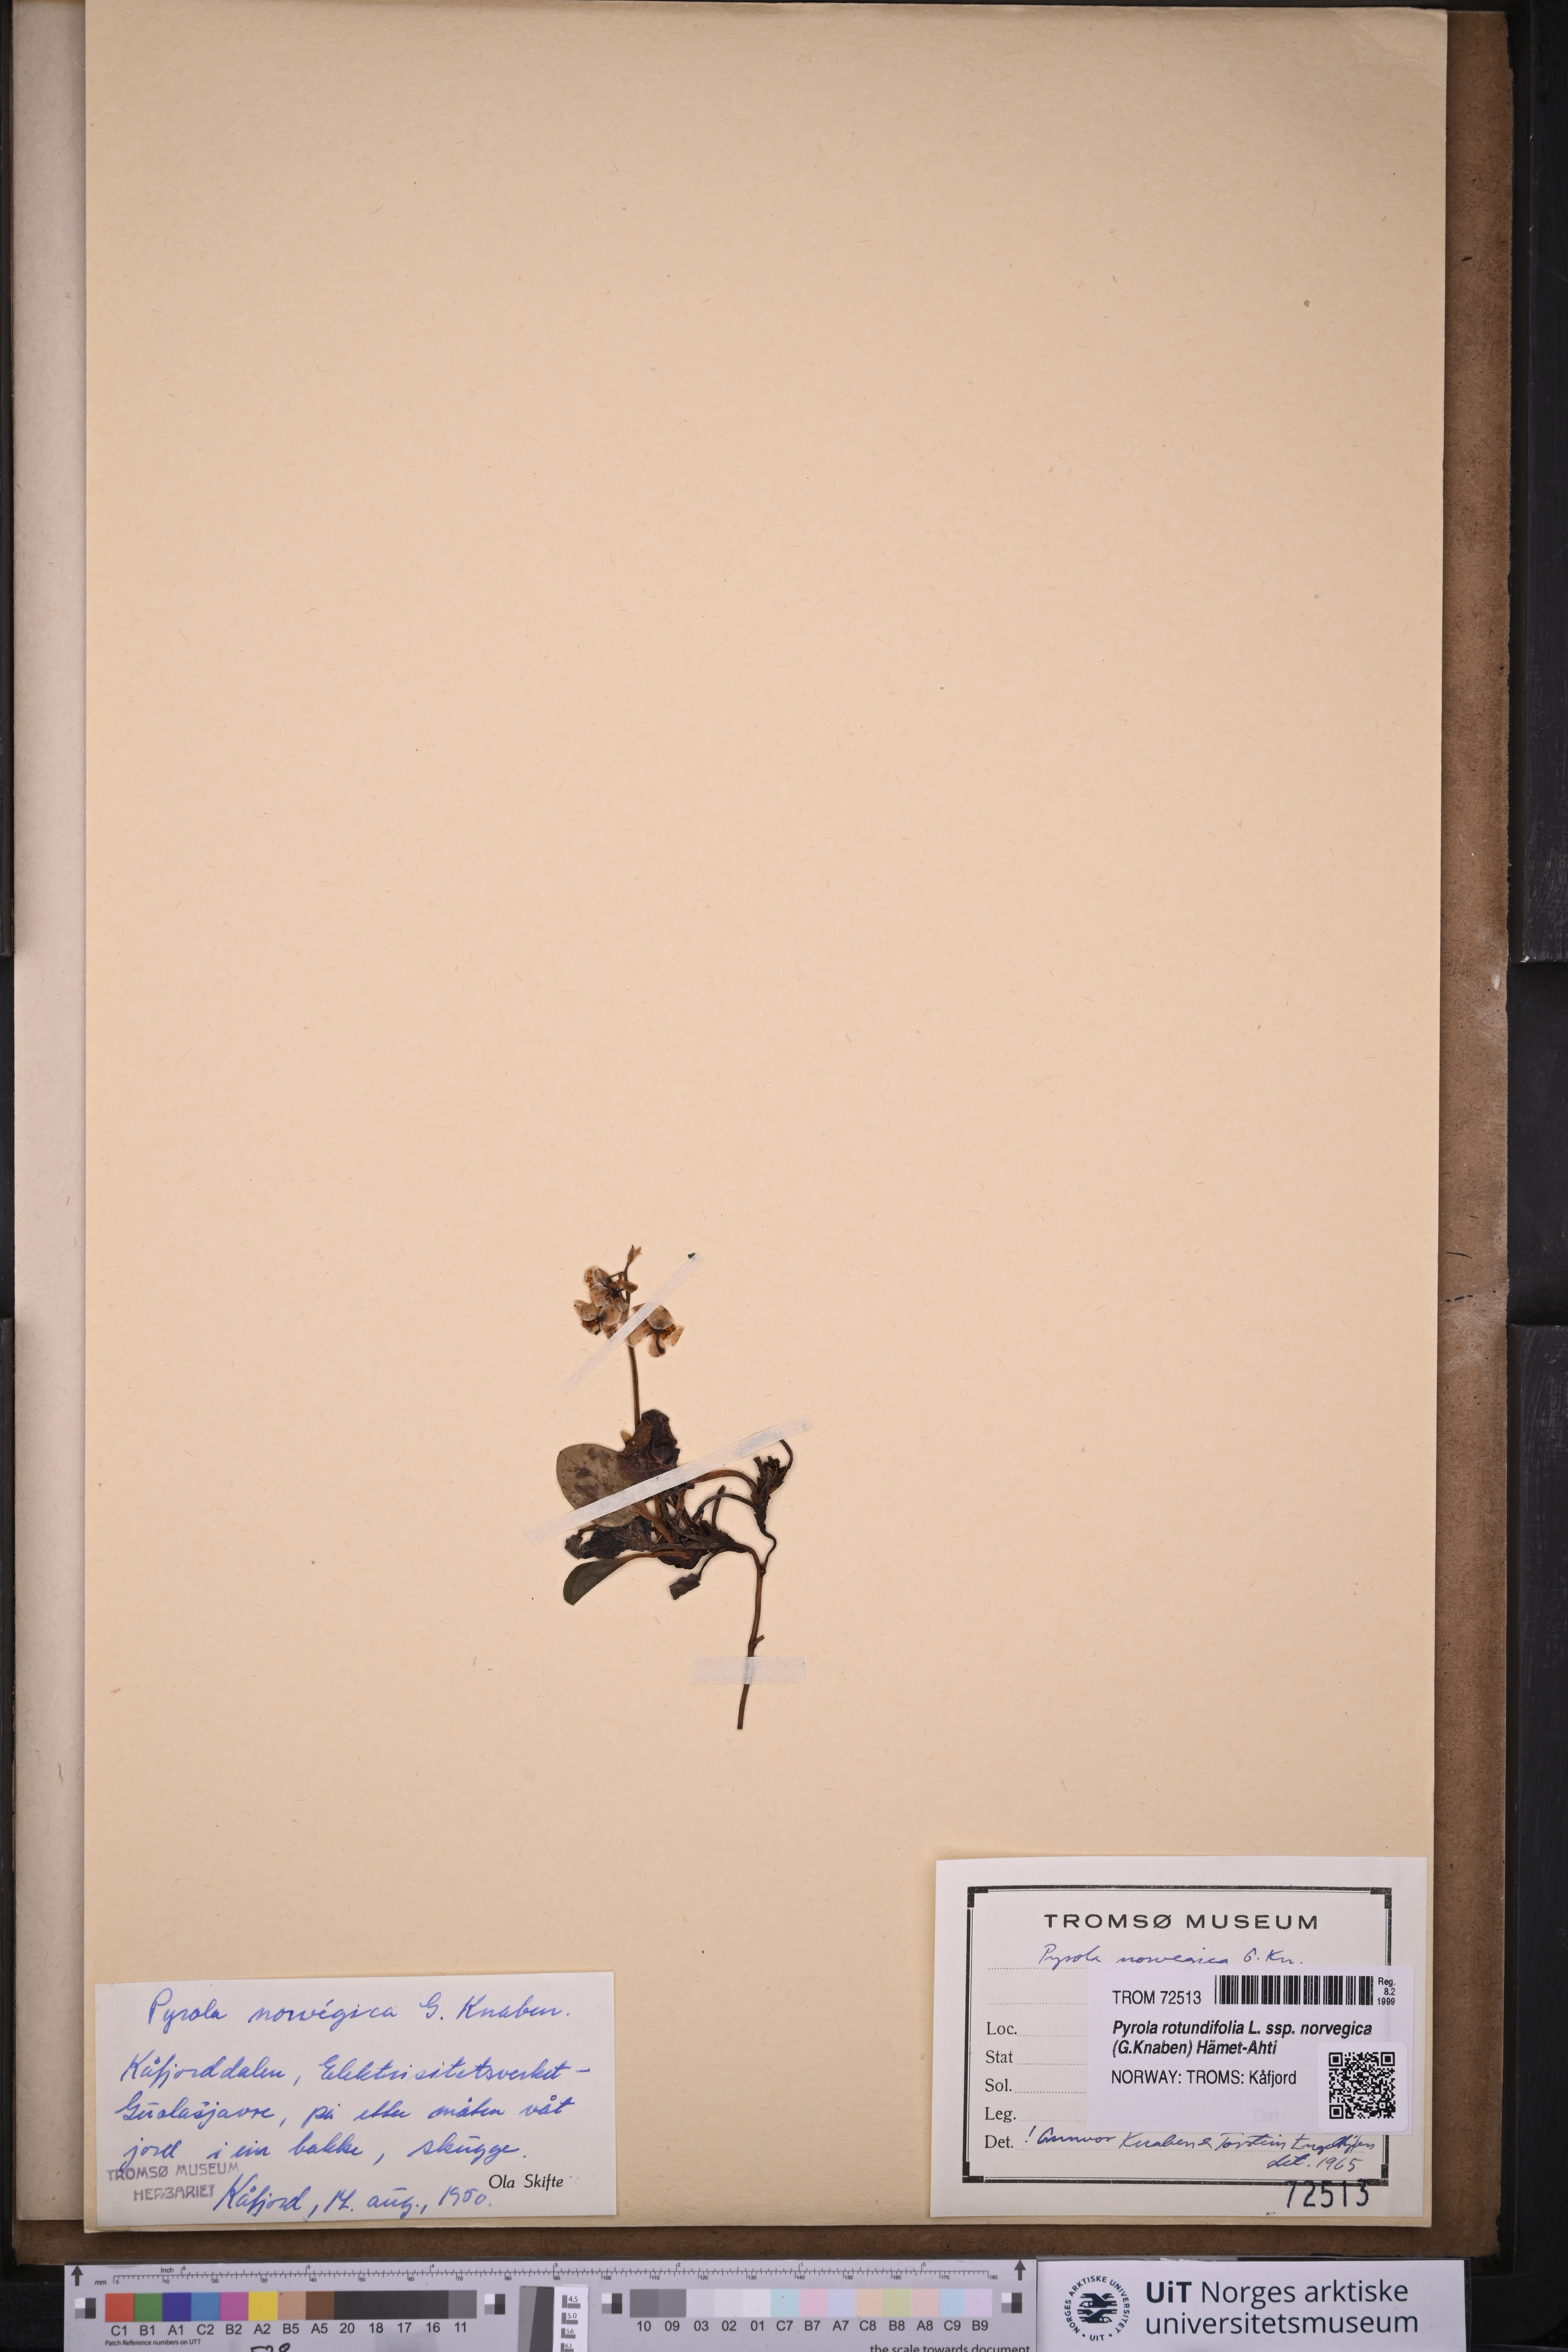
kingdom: Plantae
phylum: Tracheophyta
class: Magnoliopsida
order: Ericales
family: Ericaceae
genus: Pyrola
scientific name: Pyrola rotundifolia
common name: Round-leaved wintergreen
